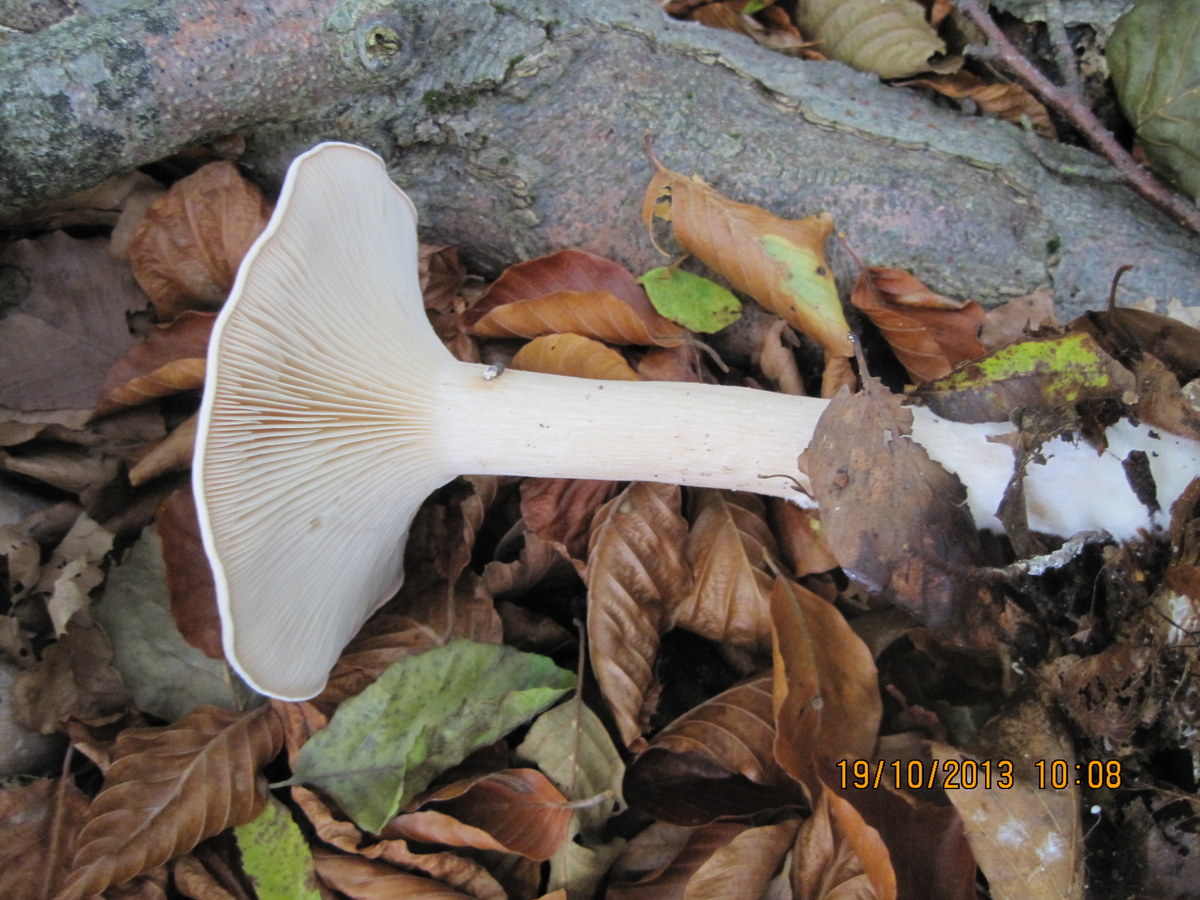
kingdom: Fungi
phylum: Basidiomycota
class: Agaricomycetes
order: Agaricales
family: Tricholomataceae
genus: Infundibulicybe
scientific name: Infundibulicybe geotropa
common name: stor tragthat
